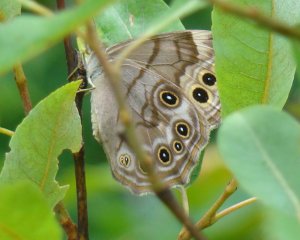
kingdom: Animalia
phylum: Arthropoda
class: Insecta
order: Lepidoptera
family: Nymphalidae
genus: Lethe
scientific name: Lethe anthedon
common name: Northern Pearly-Eye
